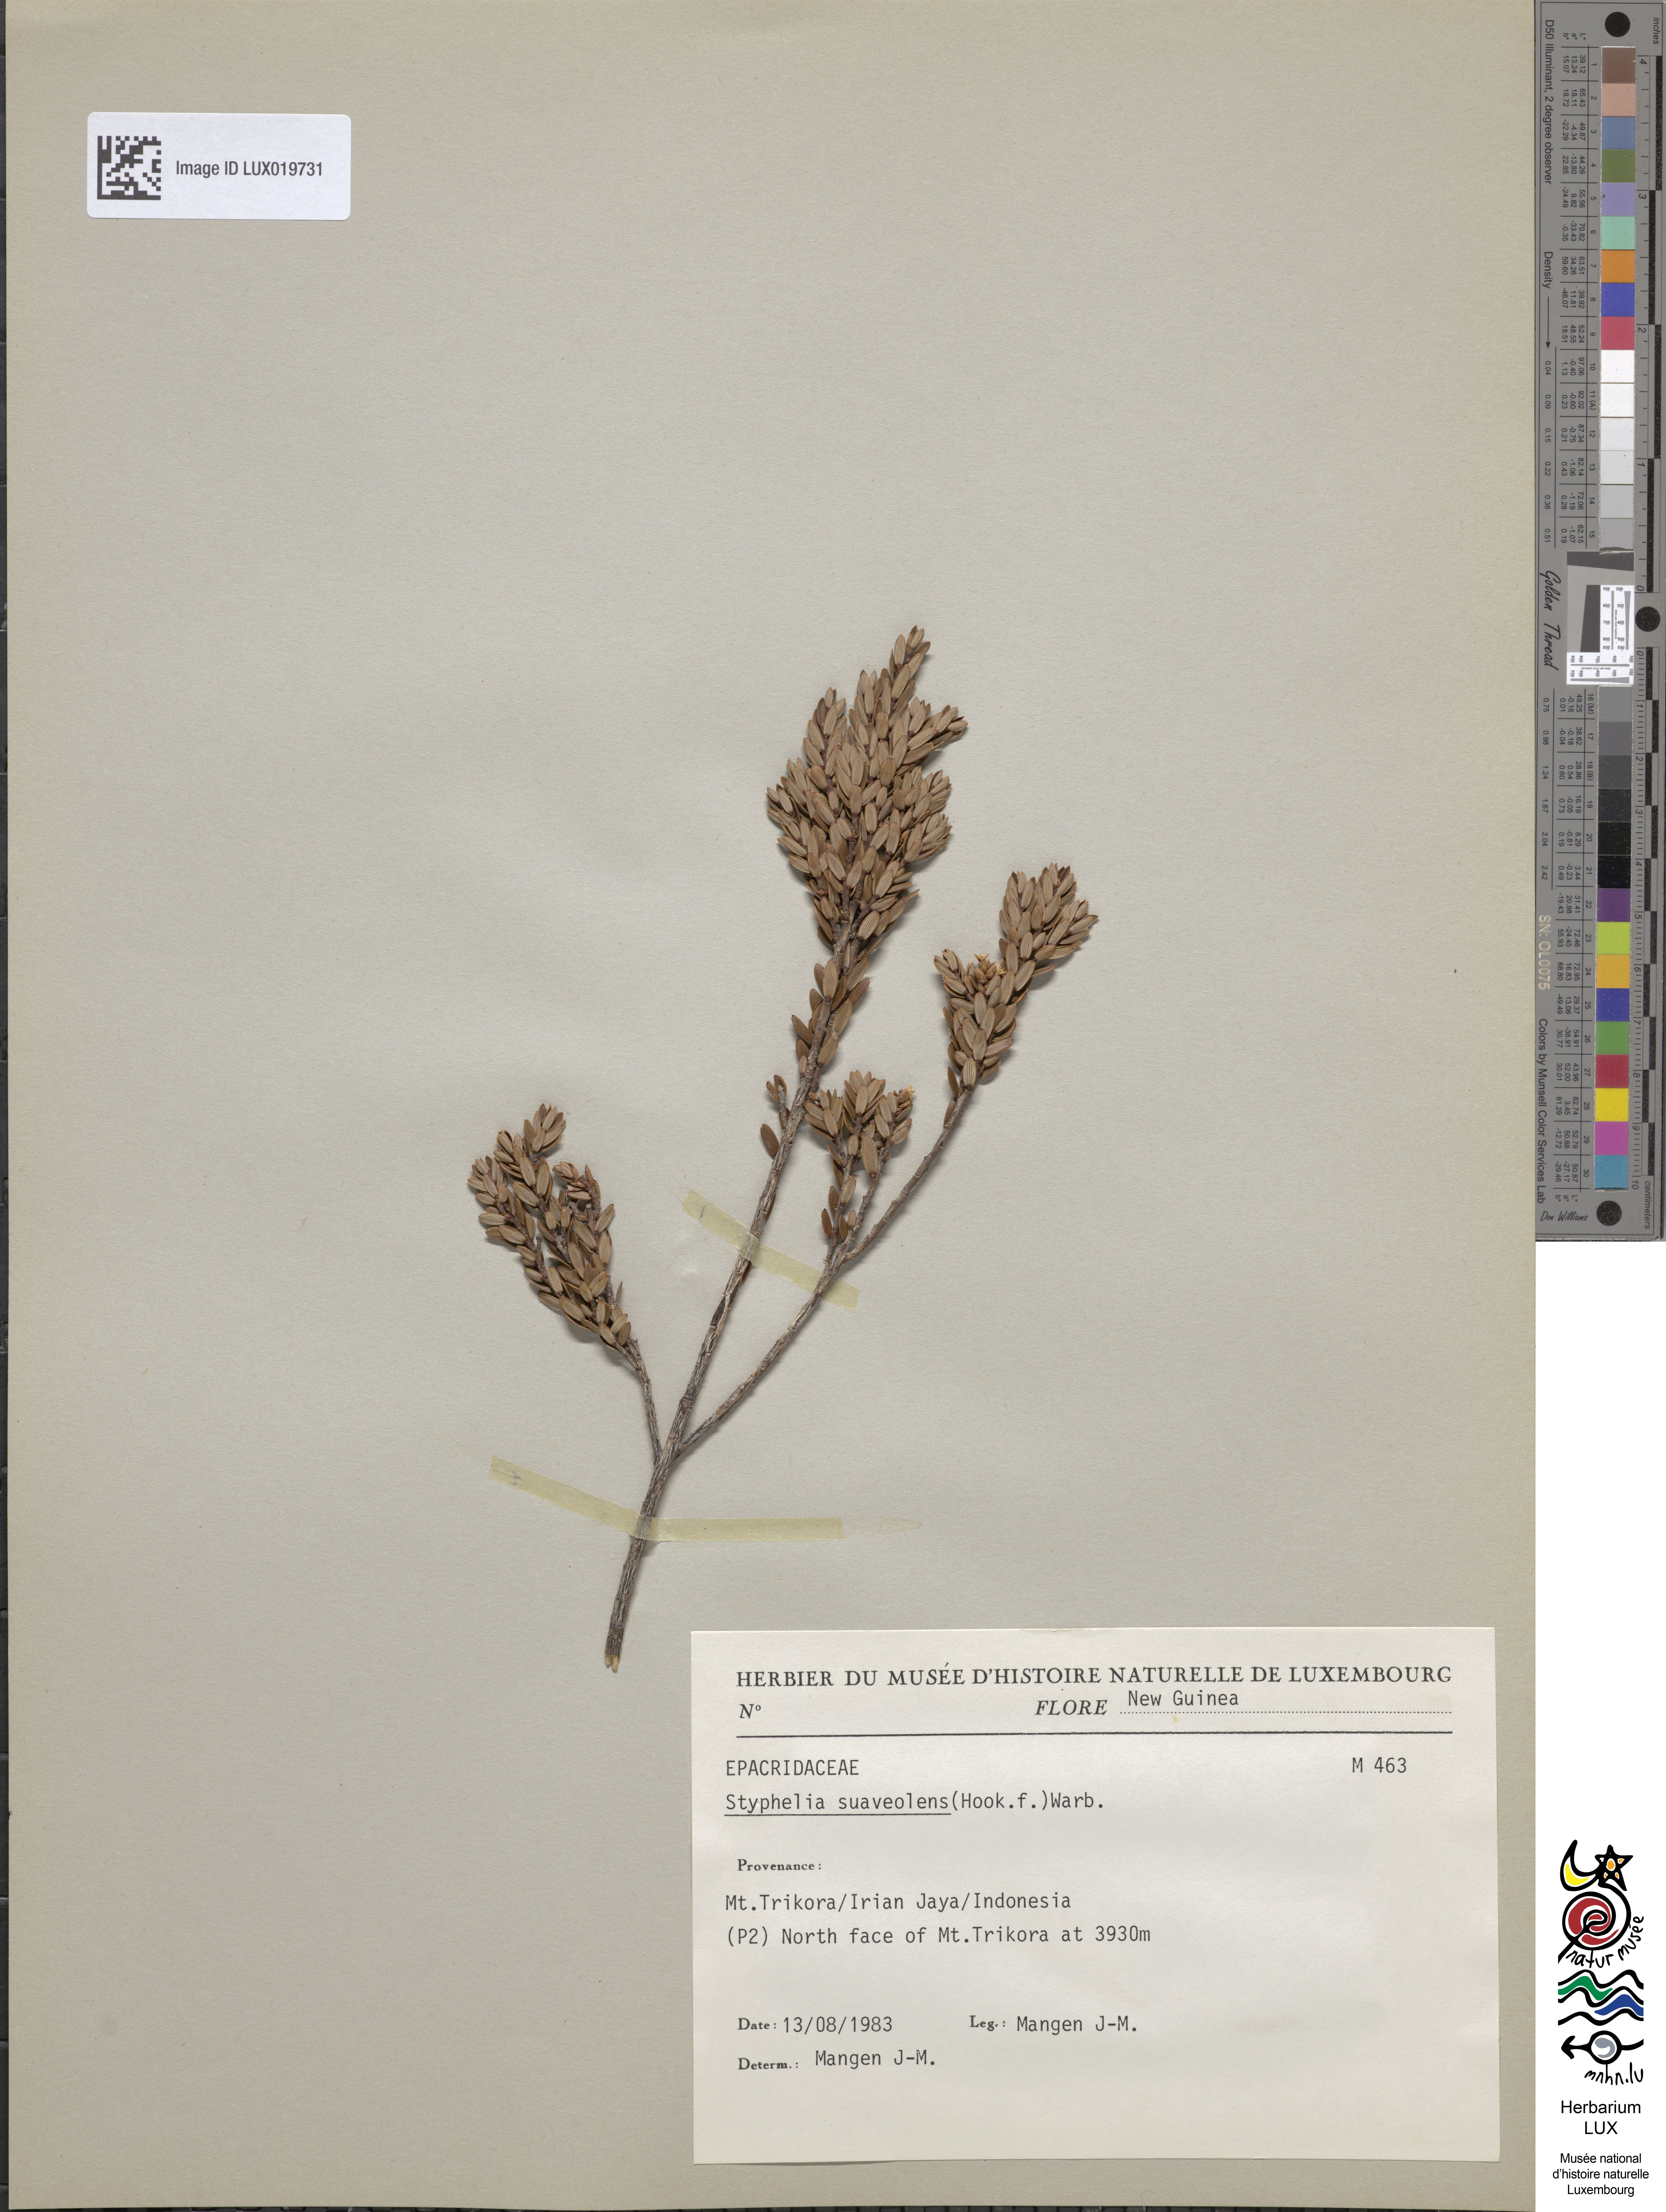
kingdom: Plantae
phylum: Tracheophyta
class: Magnoliopsida
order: Ericales
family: Ericaceae
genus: Acrothamnus
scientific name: Acrothamnus suaveolens
